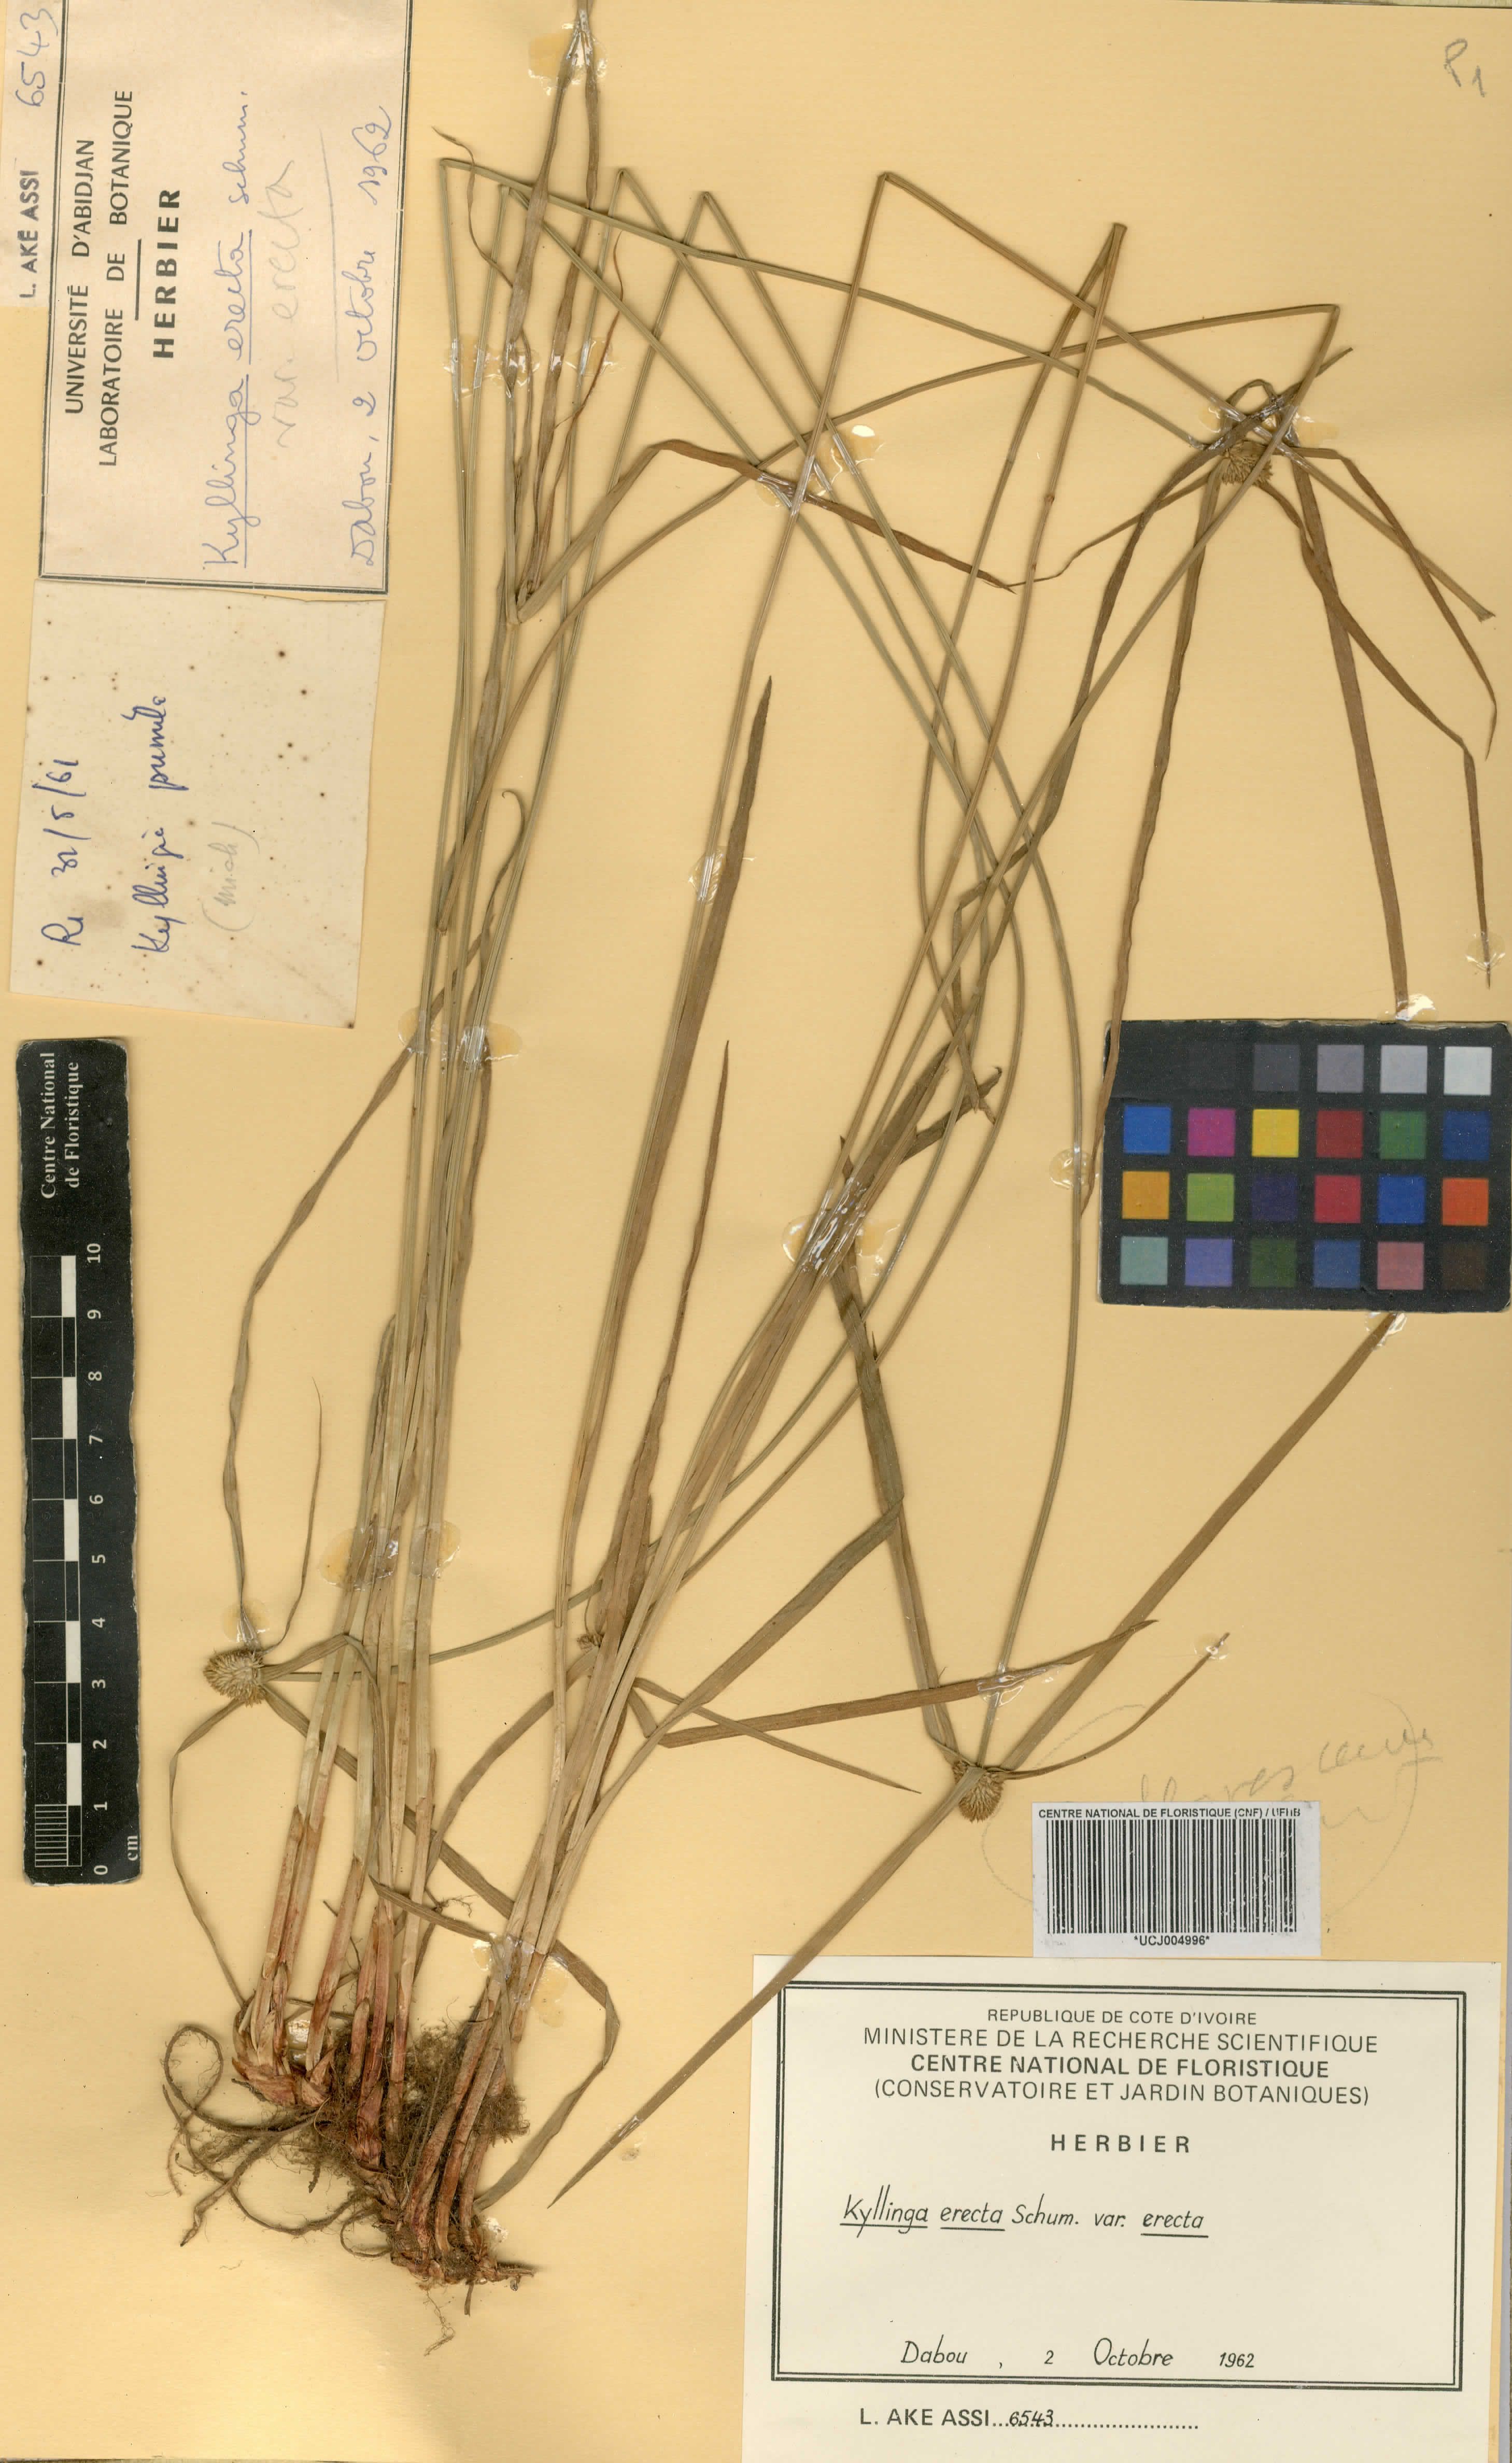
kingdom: Plantae
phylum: Tracheophyta
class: Liliopsida
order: Poales
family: Cyperaceae
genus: Cyperus
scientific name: Cyperus erectus
